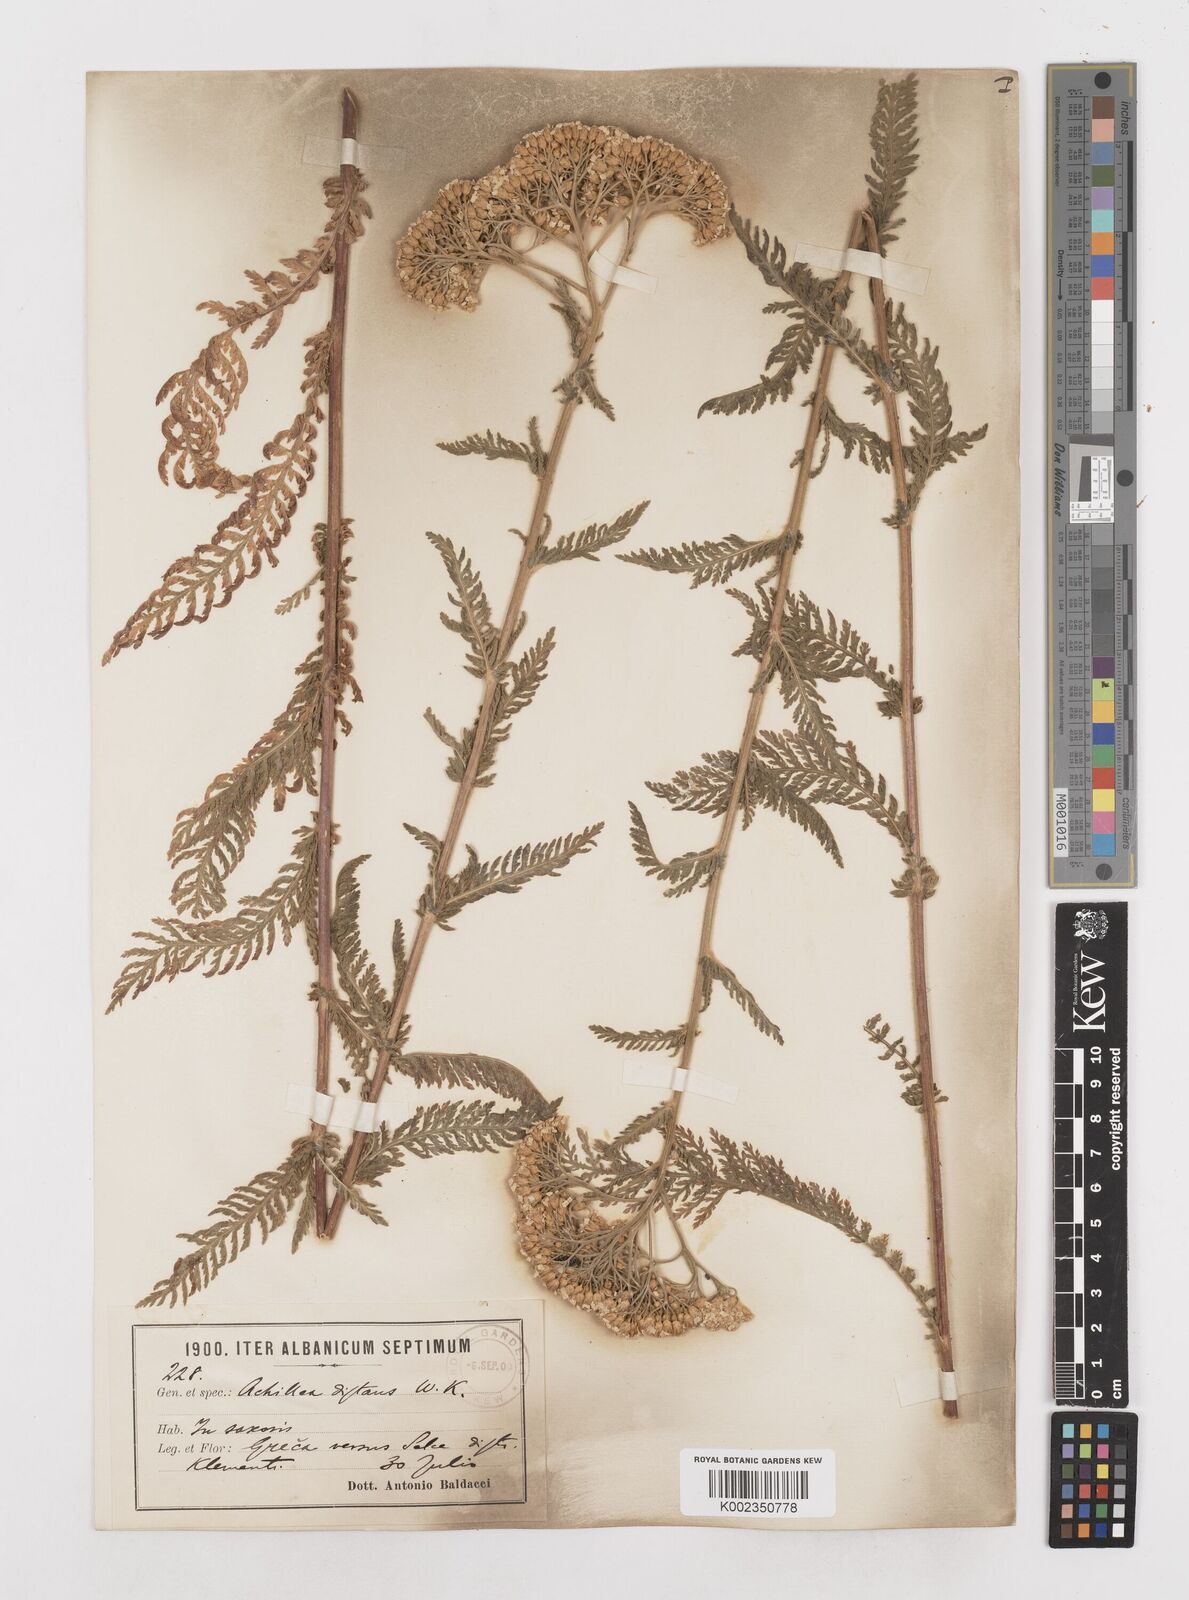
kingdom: Plantae
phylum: Tracheophyta
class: Magnoliopsida
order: Asterales
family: Asteraceae
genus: Achillea
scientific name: Achillea distans
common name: Tall yarrow
